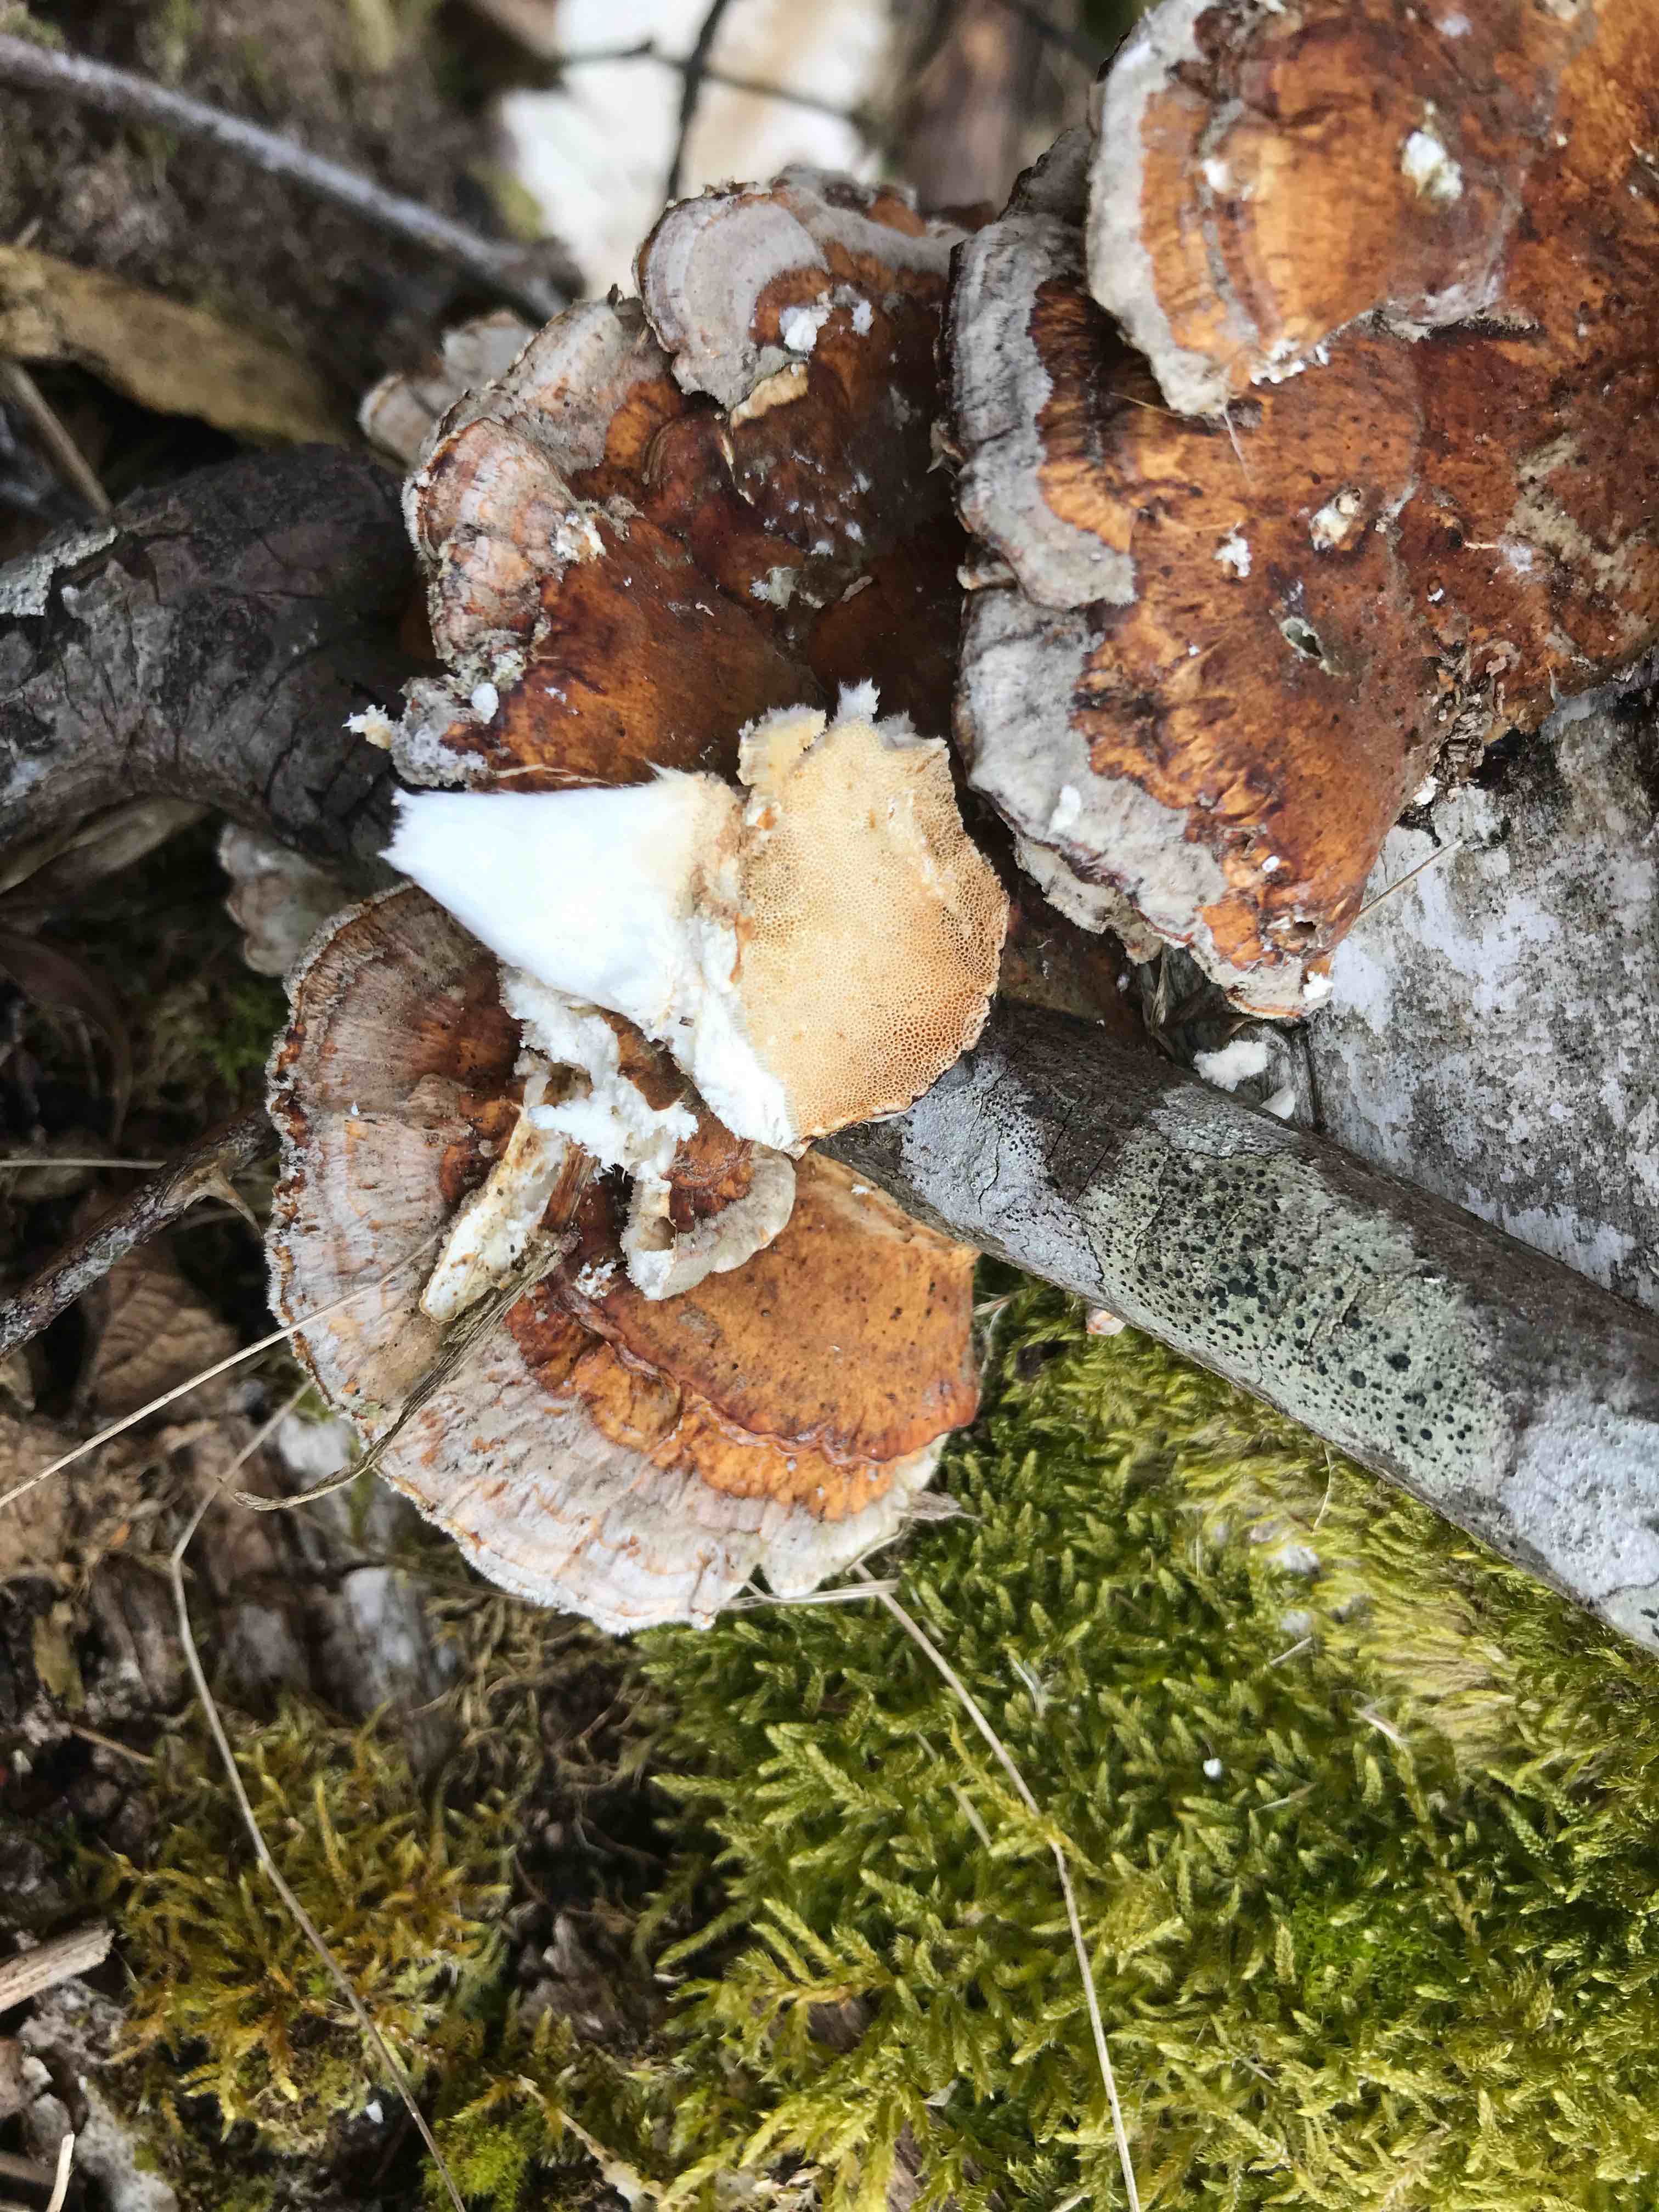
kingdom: Fungi
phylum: Basidiomycota
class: Agaricomycetes
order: Polyporales
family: Polyporaceae
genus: Trametes
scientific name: Trametes ochracea
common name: bæltet læderporesvamp
